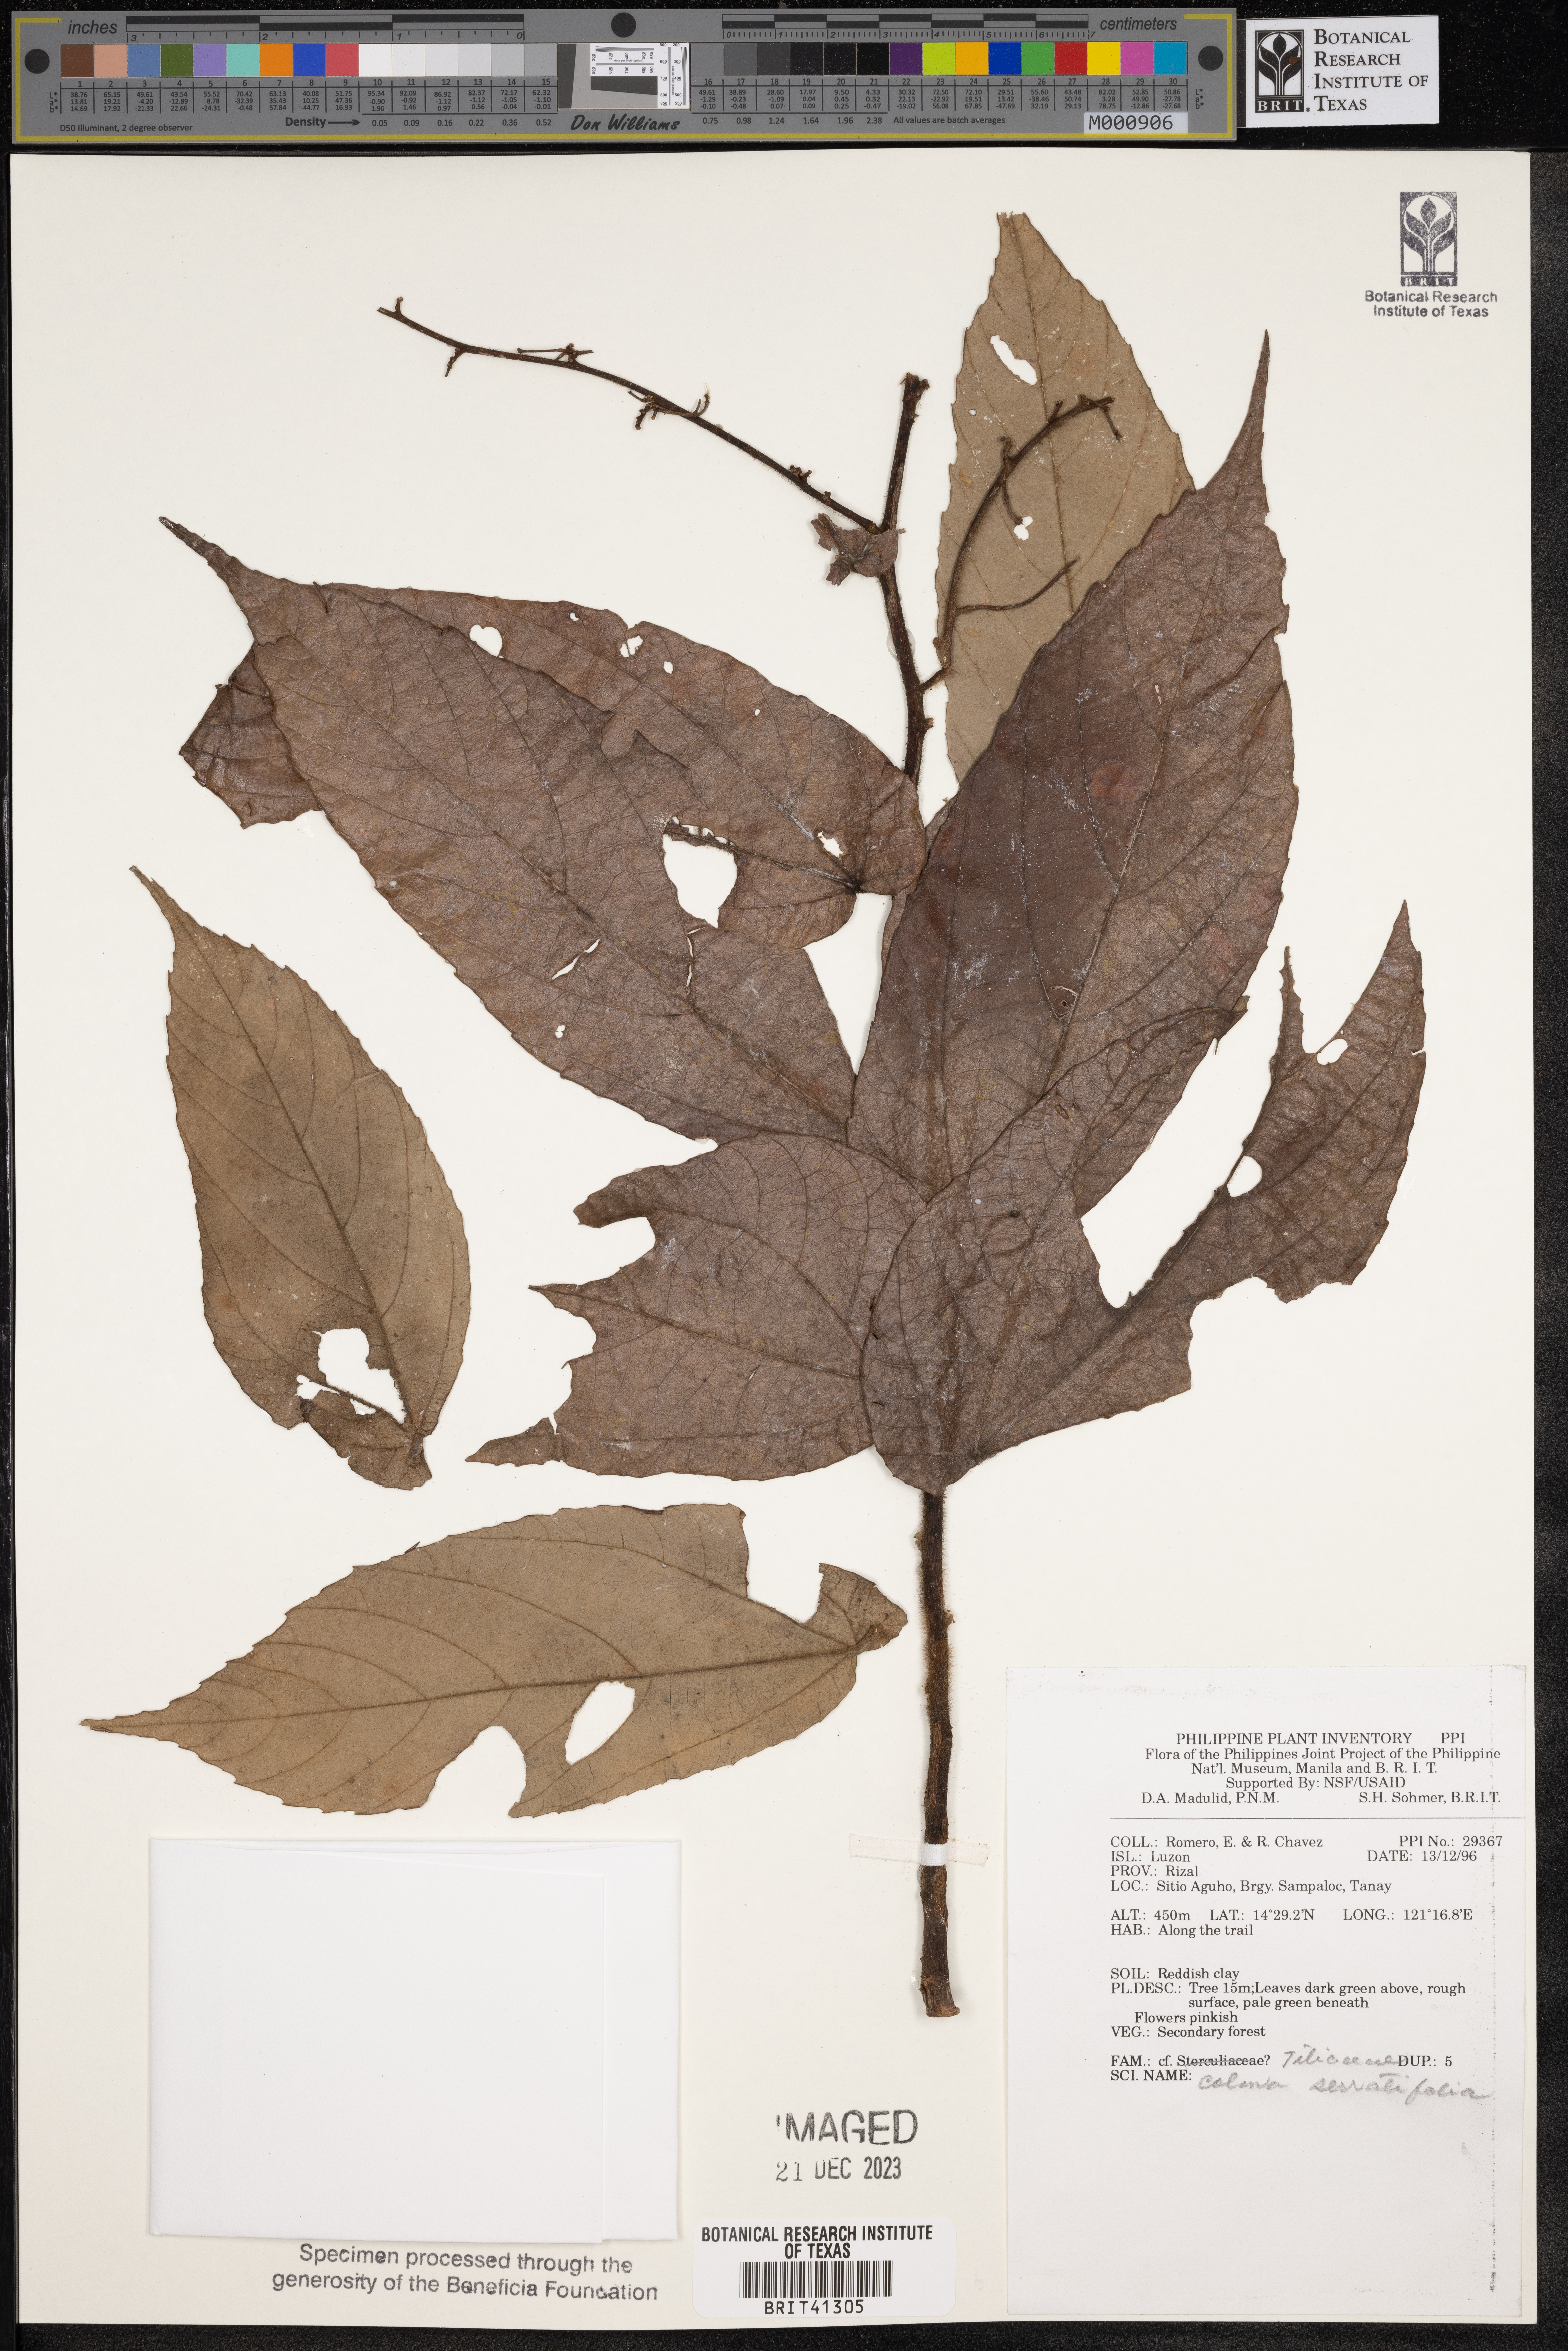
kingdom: Plantae
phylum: Tracheophyta
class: Magnoliopsida
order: Malvales
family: Malvaceae
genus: Colona
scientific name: Colona serratifolia
